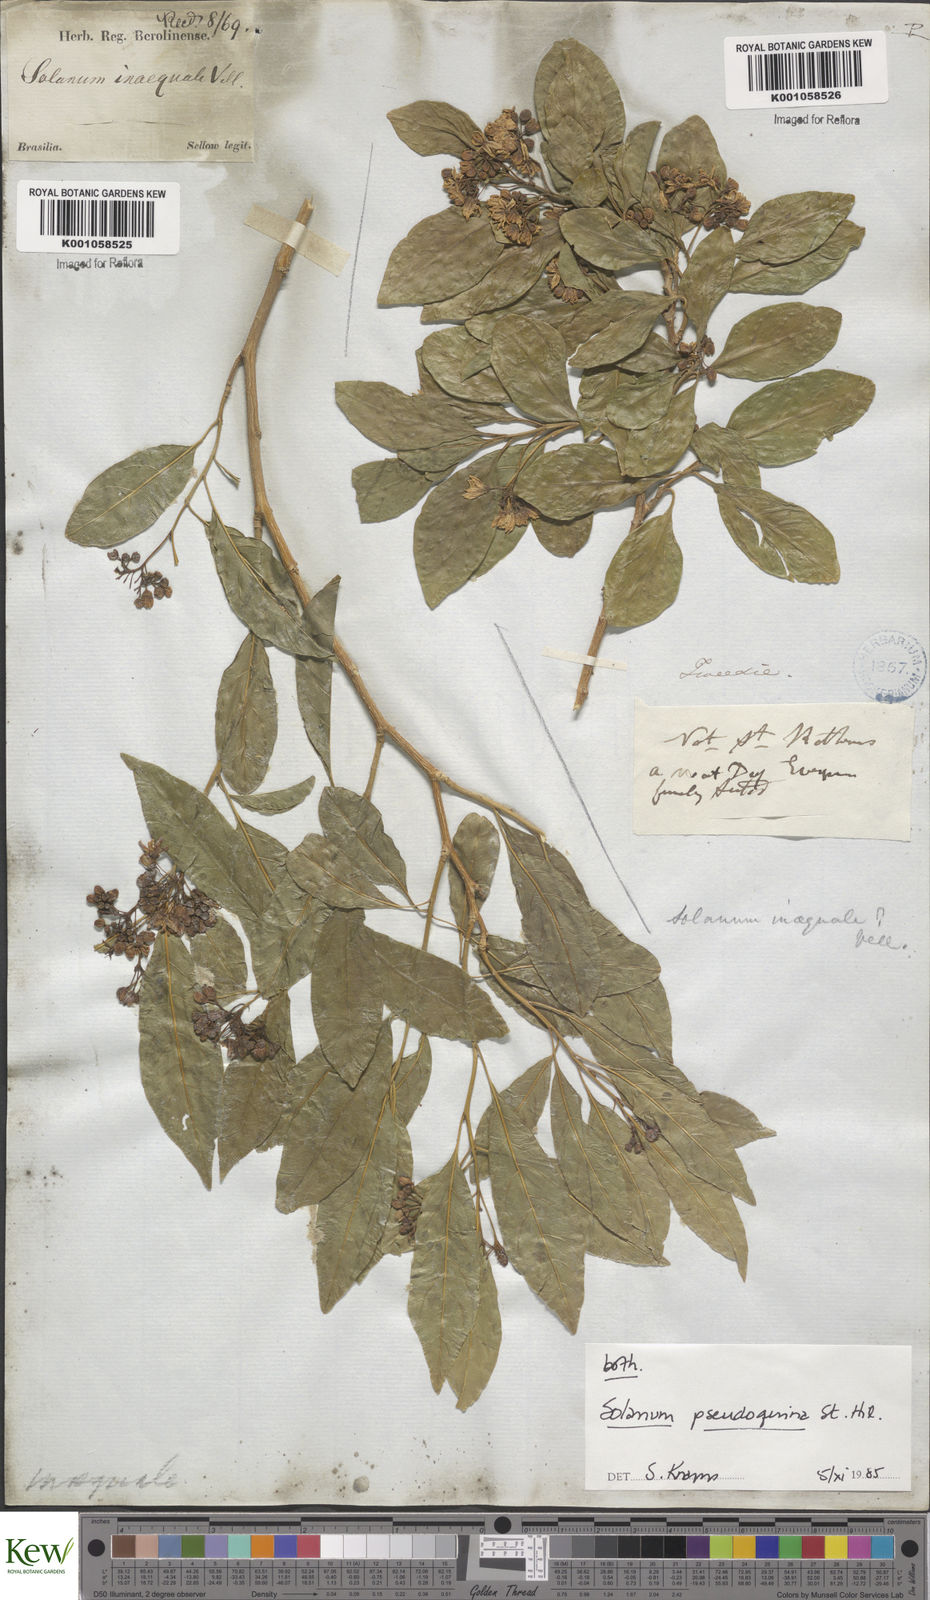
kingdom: Plantae
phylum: Tracheophyta
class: Magnoliopsida
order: Solanales
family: Solanaceae
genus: Solanum
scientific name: Solanum pseudoquina
